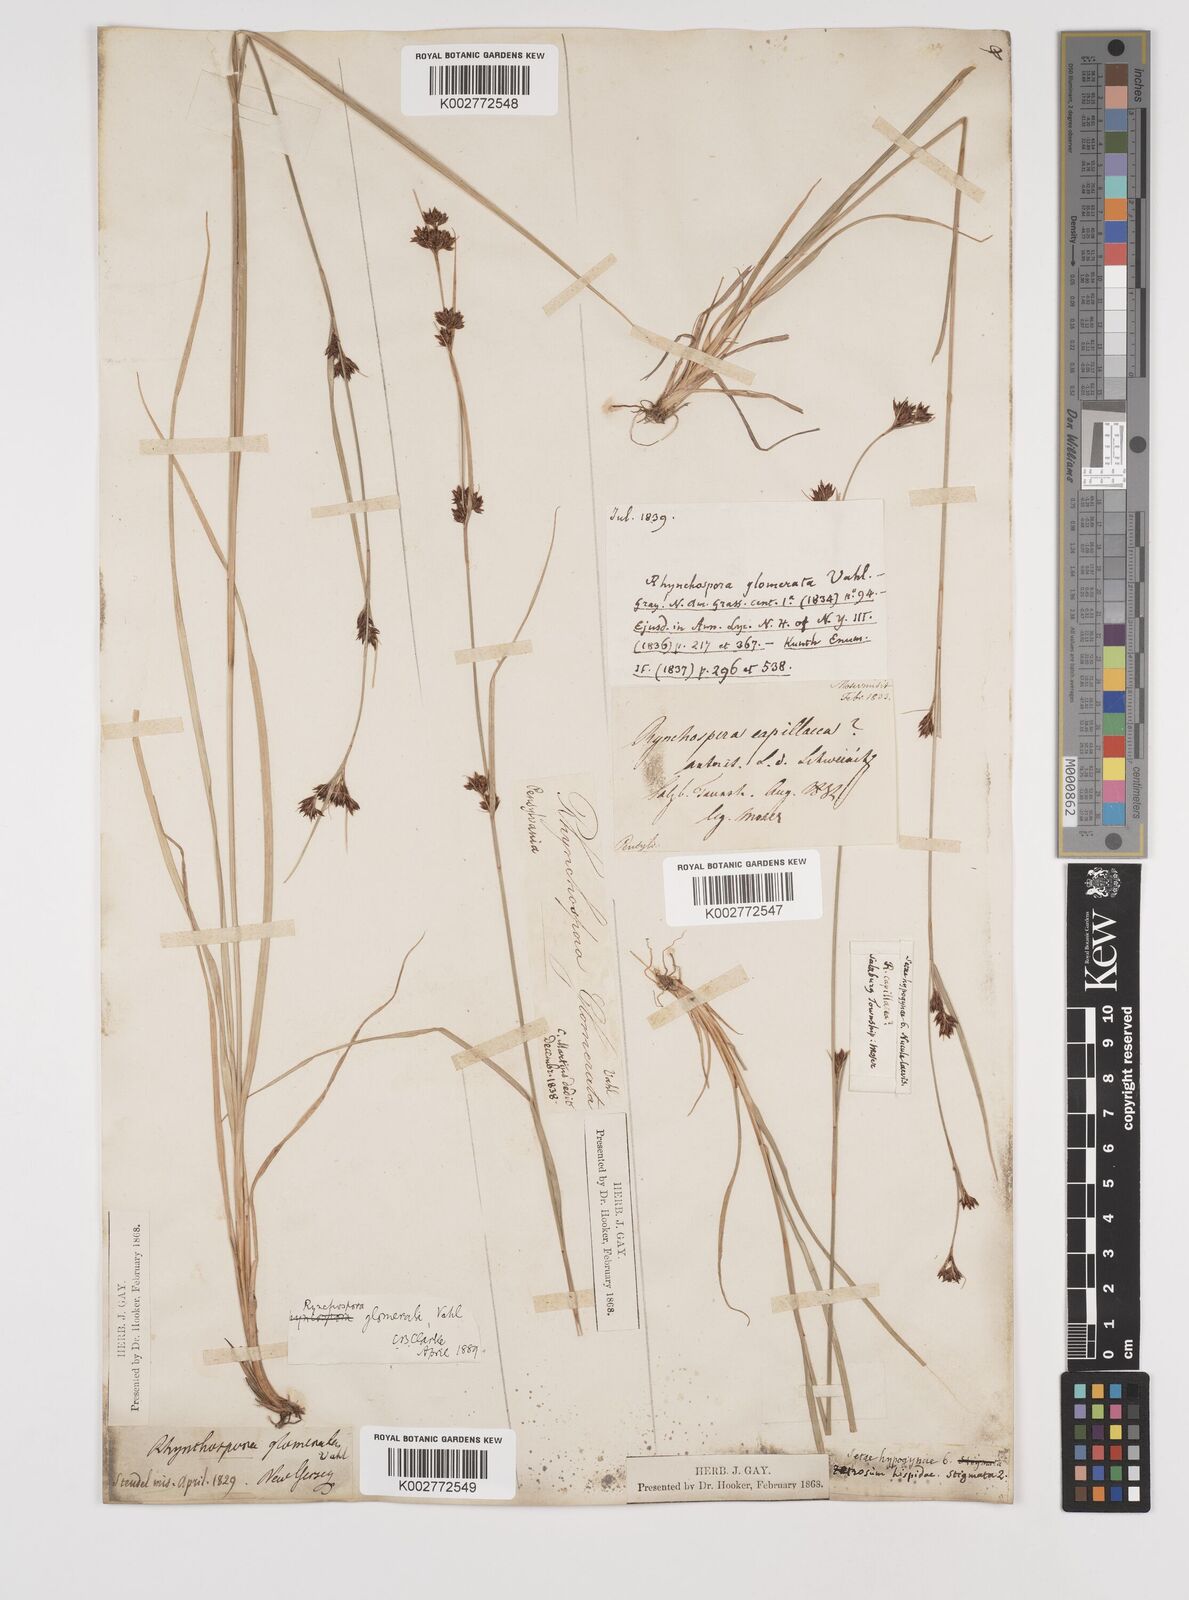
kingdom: Plantae
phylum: Tracheophyta
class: Liliopsida
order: Poales
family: Cyperaceae
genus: Rhynchospora
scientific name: Rhynchospora glomerata
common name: Cluster beak sedge
